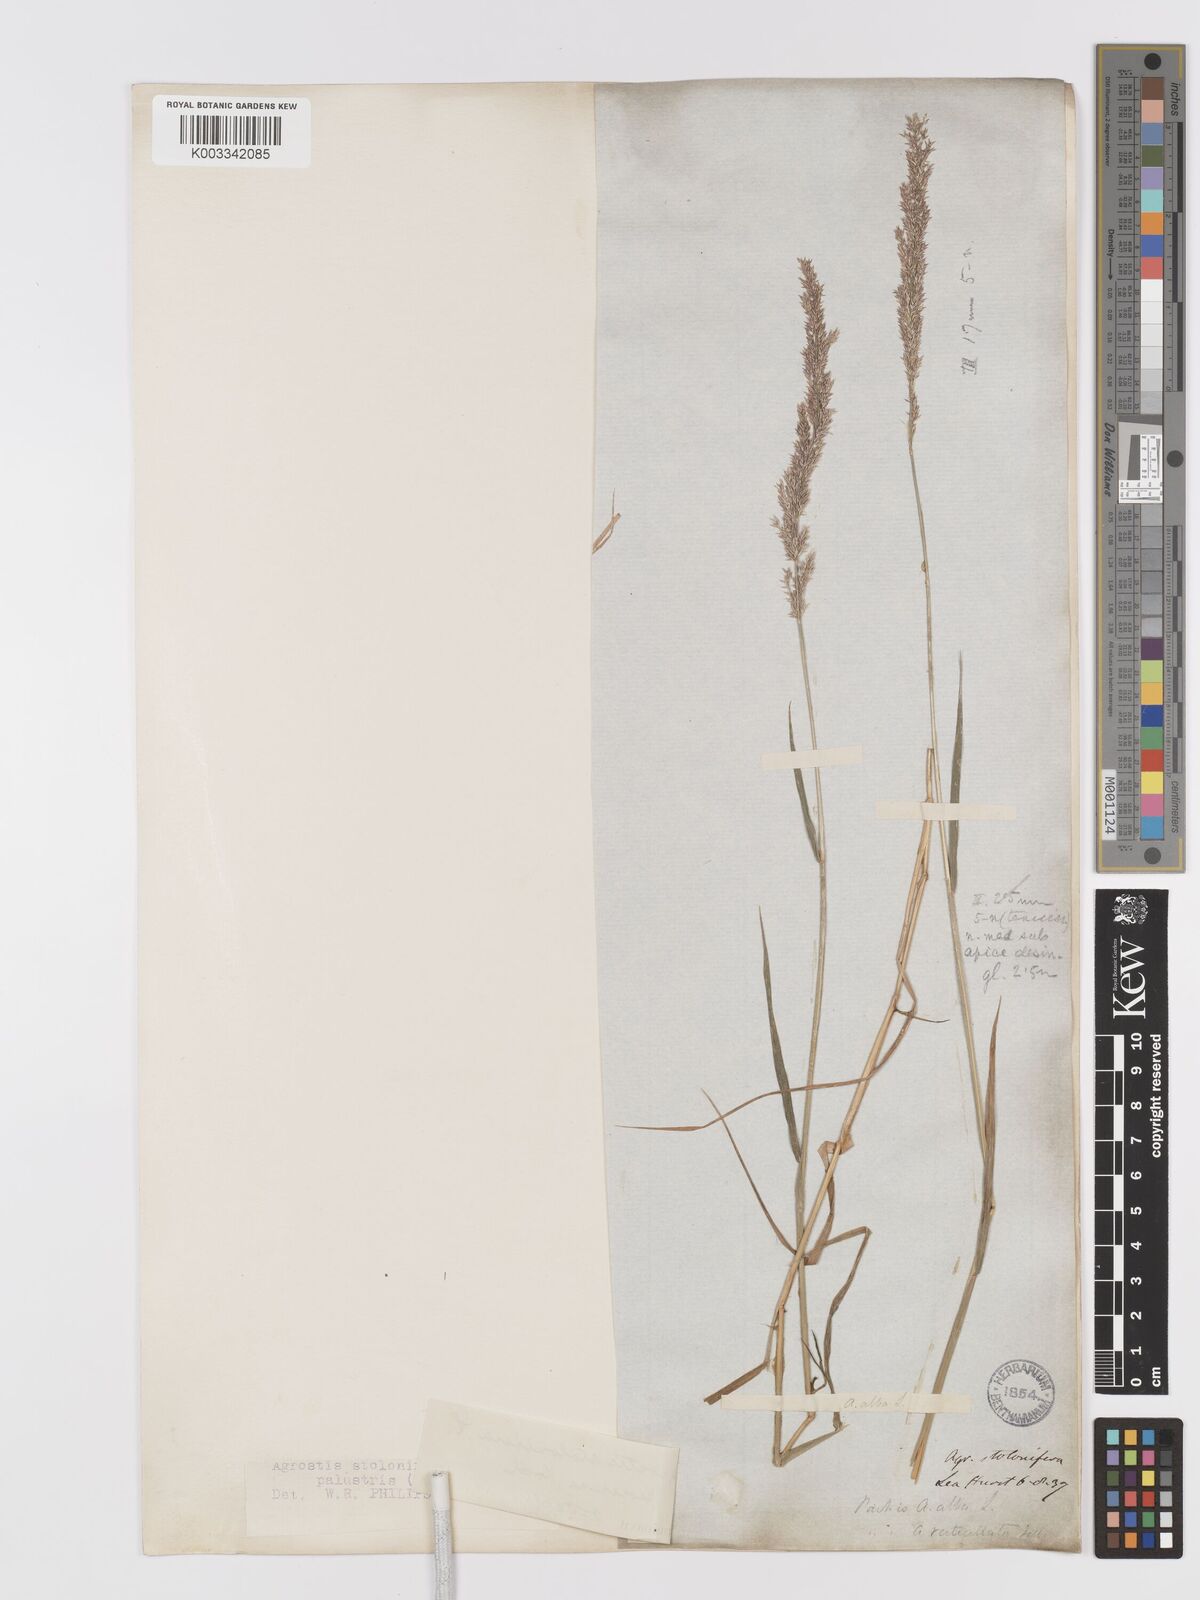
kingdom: Plantae
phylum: Tracheophyta
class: Liliopsida
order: Poales
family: Poaceae
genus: Agrostis
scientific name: Agrostis stolonifera
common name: Creeping bentgrass
